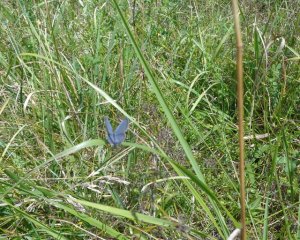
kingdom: Animalia
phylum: Arthropoda
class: Insecta
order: Lepidoptera
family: Lycaenidae
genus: Elkalyce
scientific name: Elkalyce comyntas
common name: Eastern Tailed-Blue
